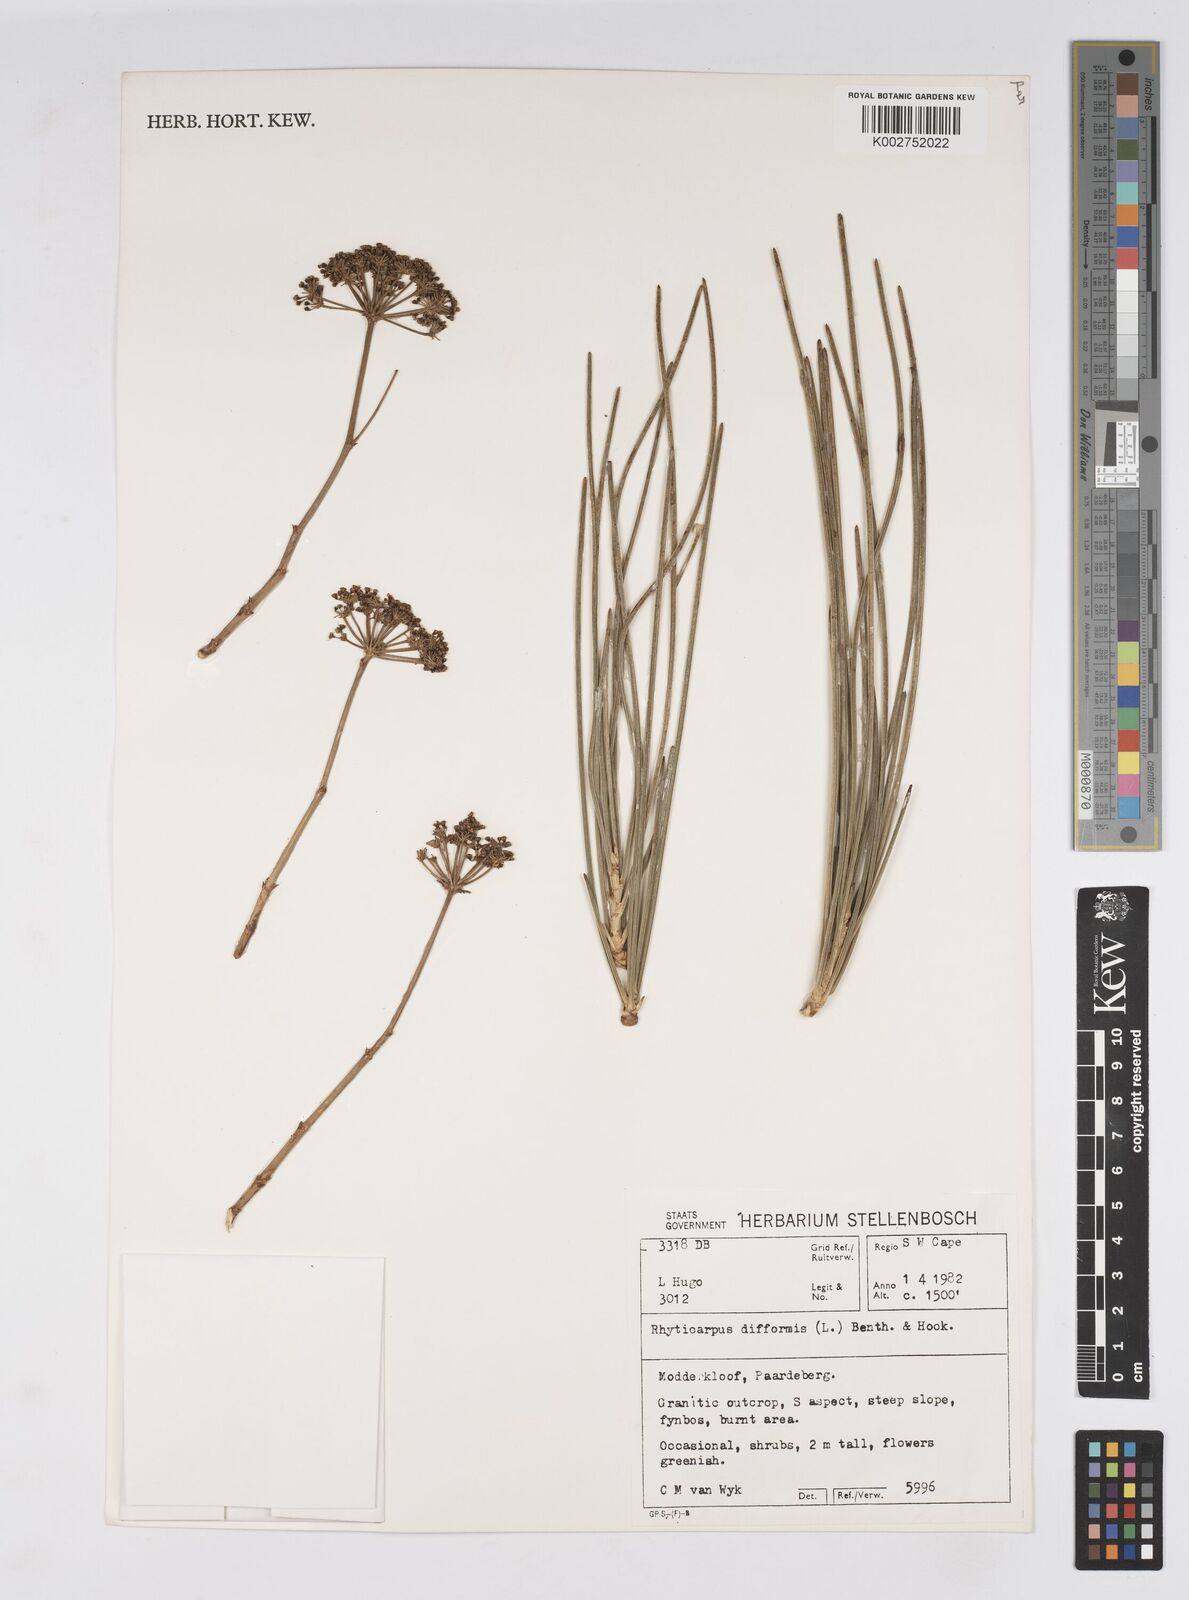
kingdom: Plantae
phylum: Tracheophyta
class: Magnoliopsida
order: Apiales
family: Apiaceae
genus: Anginon
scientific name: Anginon difforme
